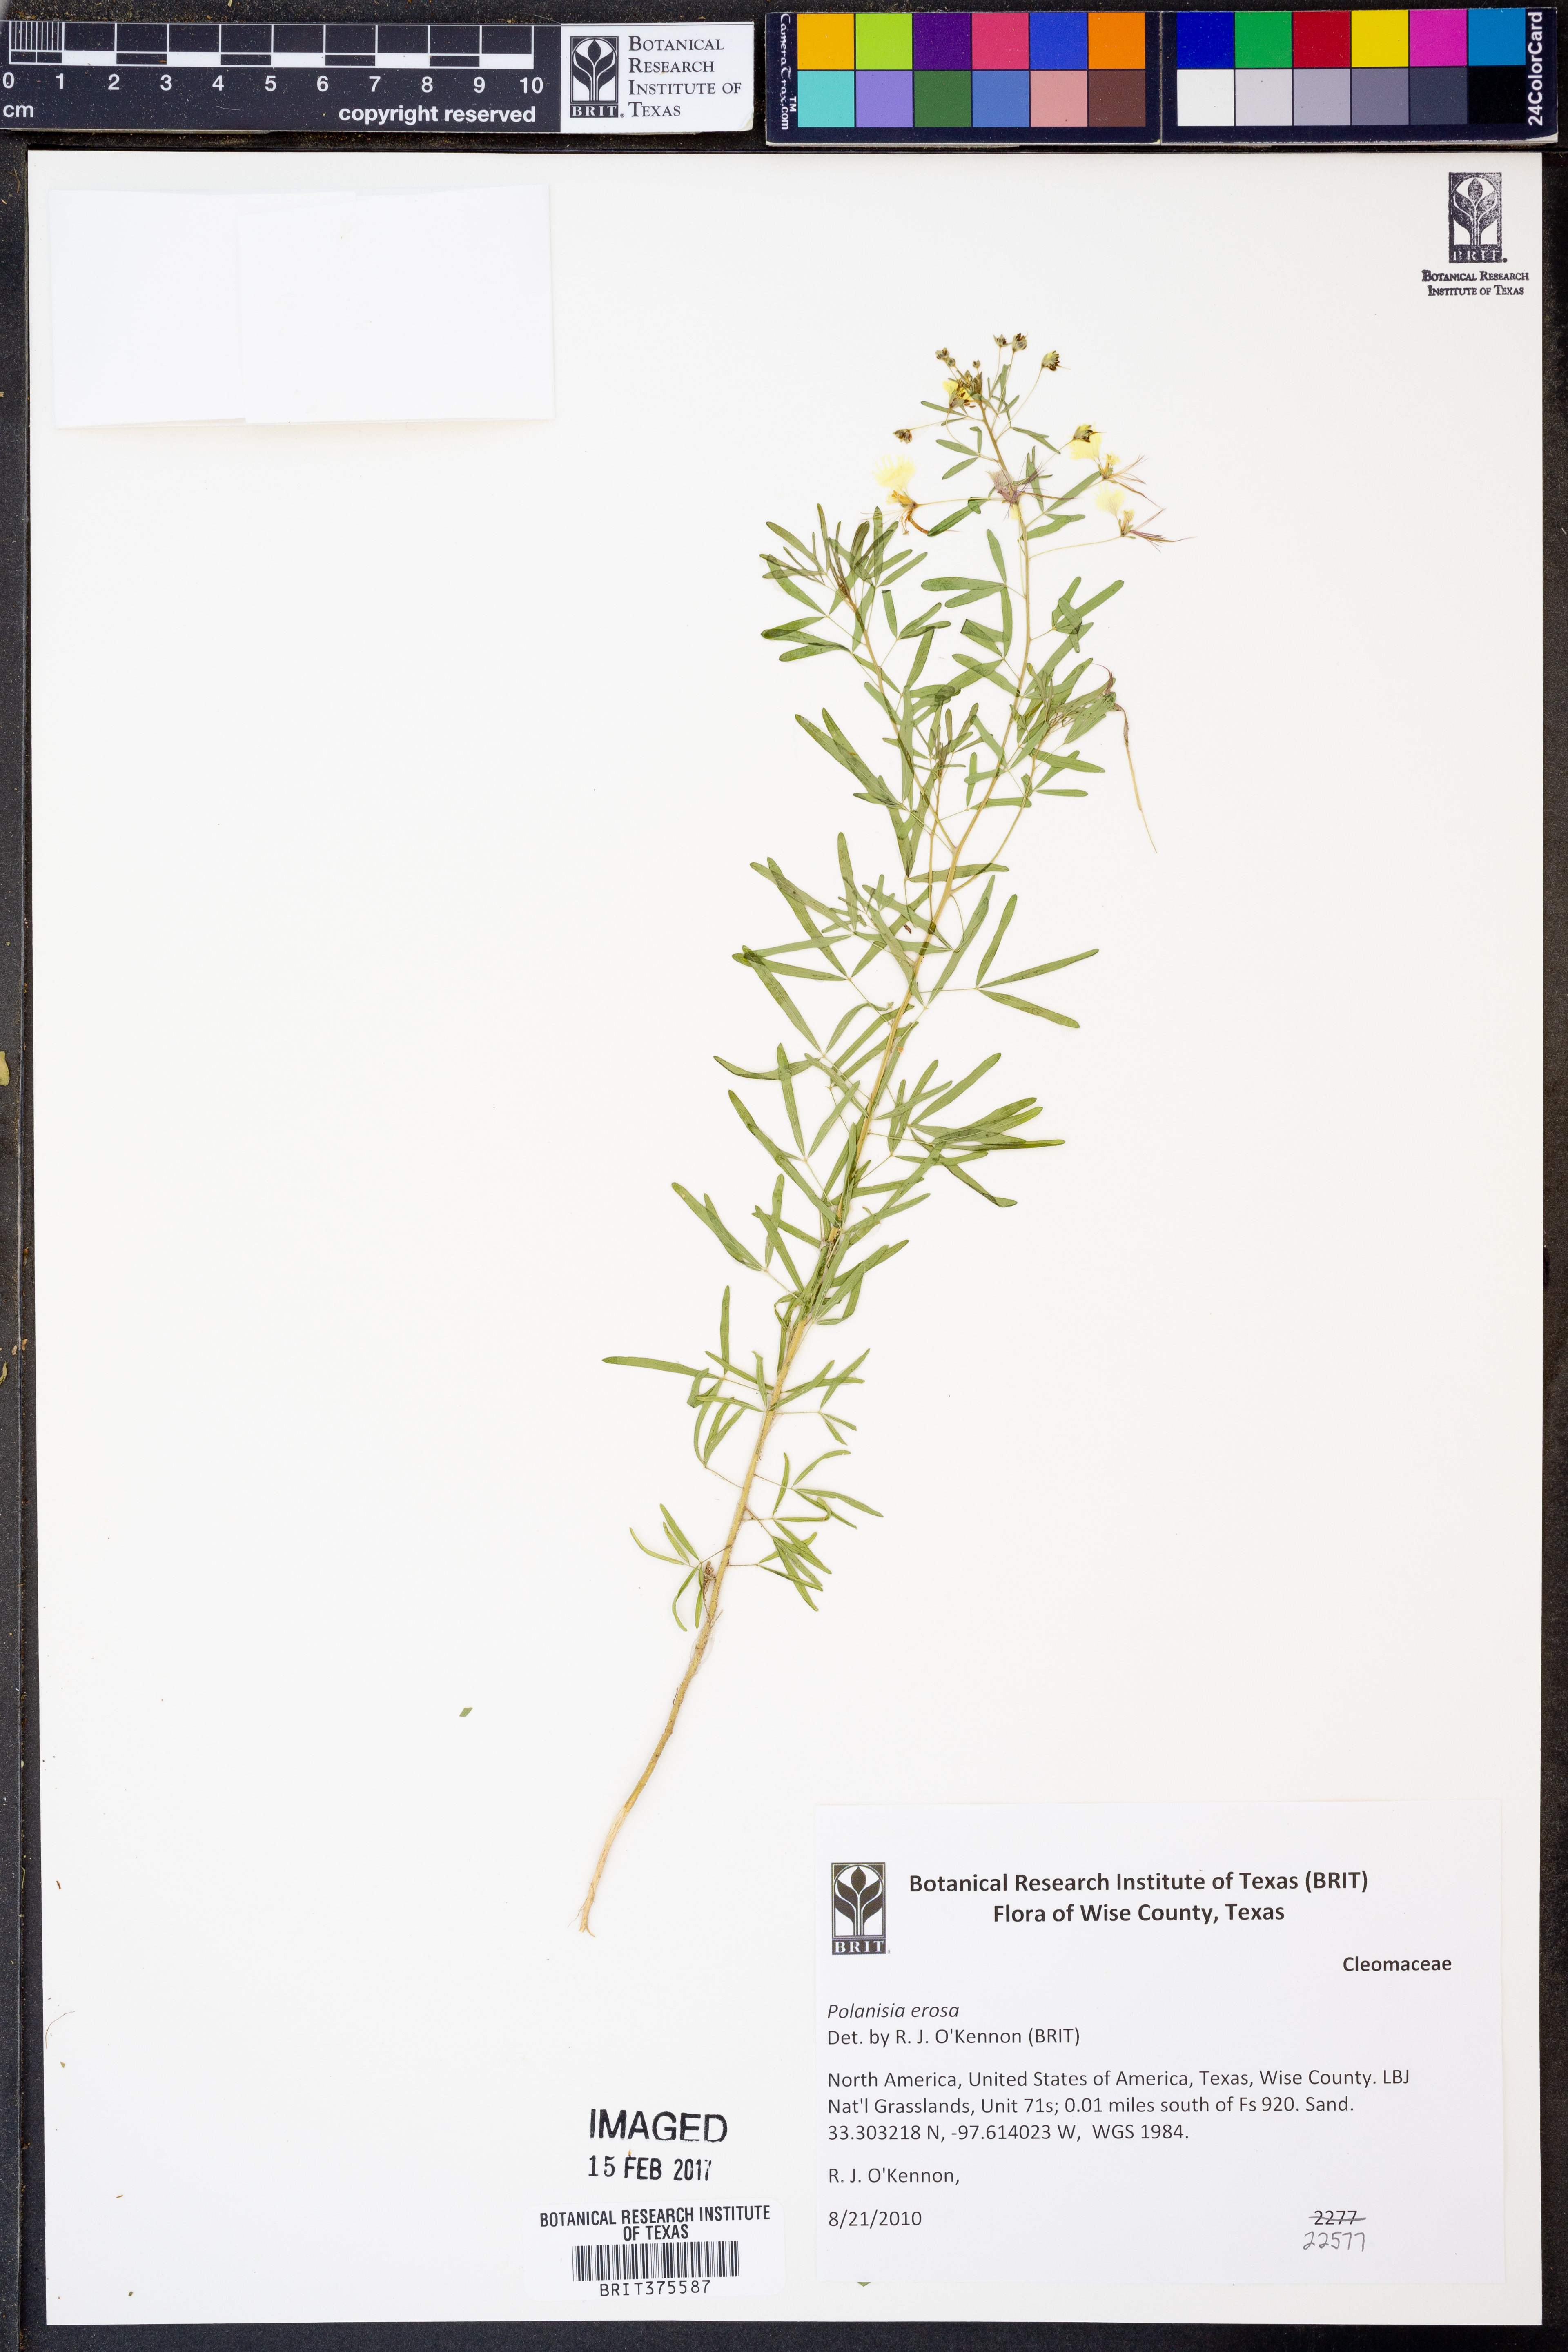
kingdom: Plantae
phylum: Tracheophyta
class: Magnoliopsida
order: Brassicales
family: Cleomaceae
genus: Polanisia
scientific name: Polanisia erosa
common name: Large clammyweed
